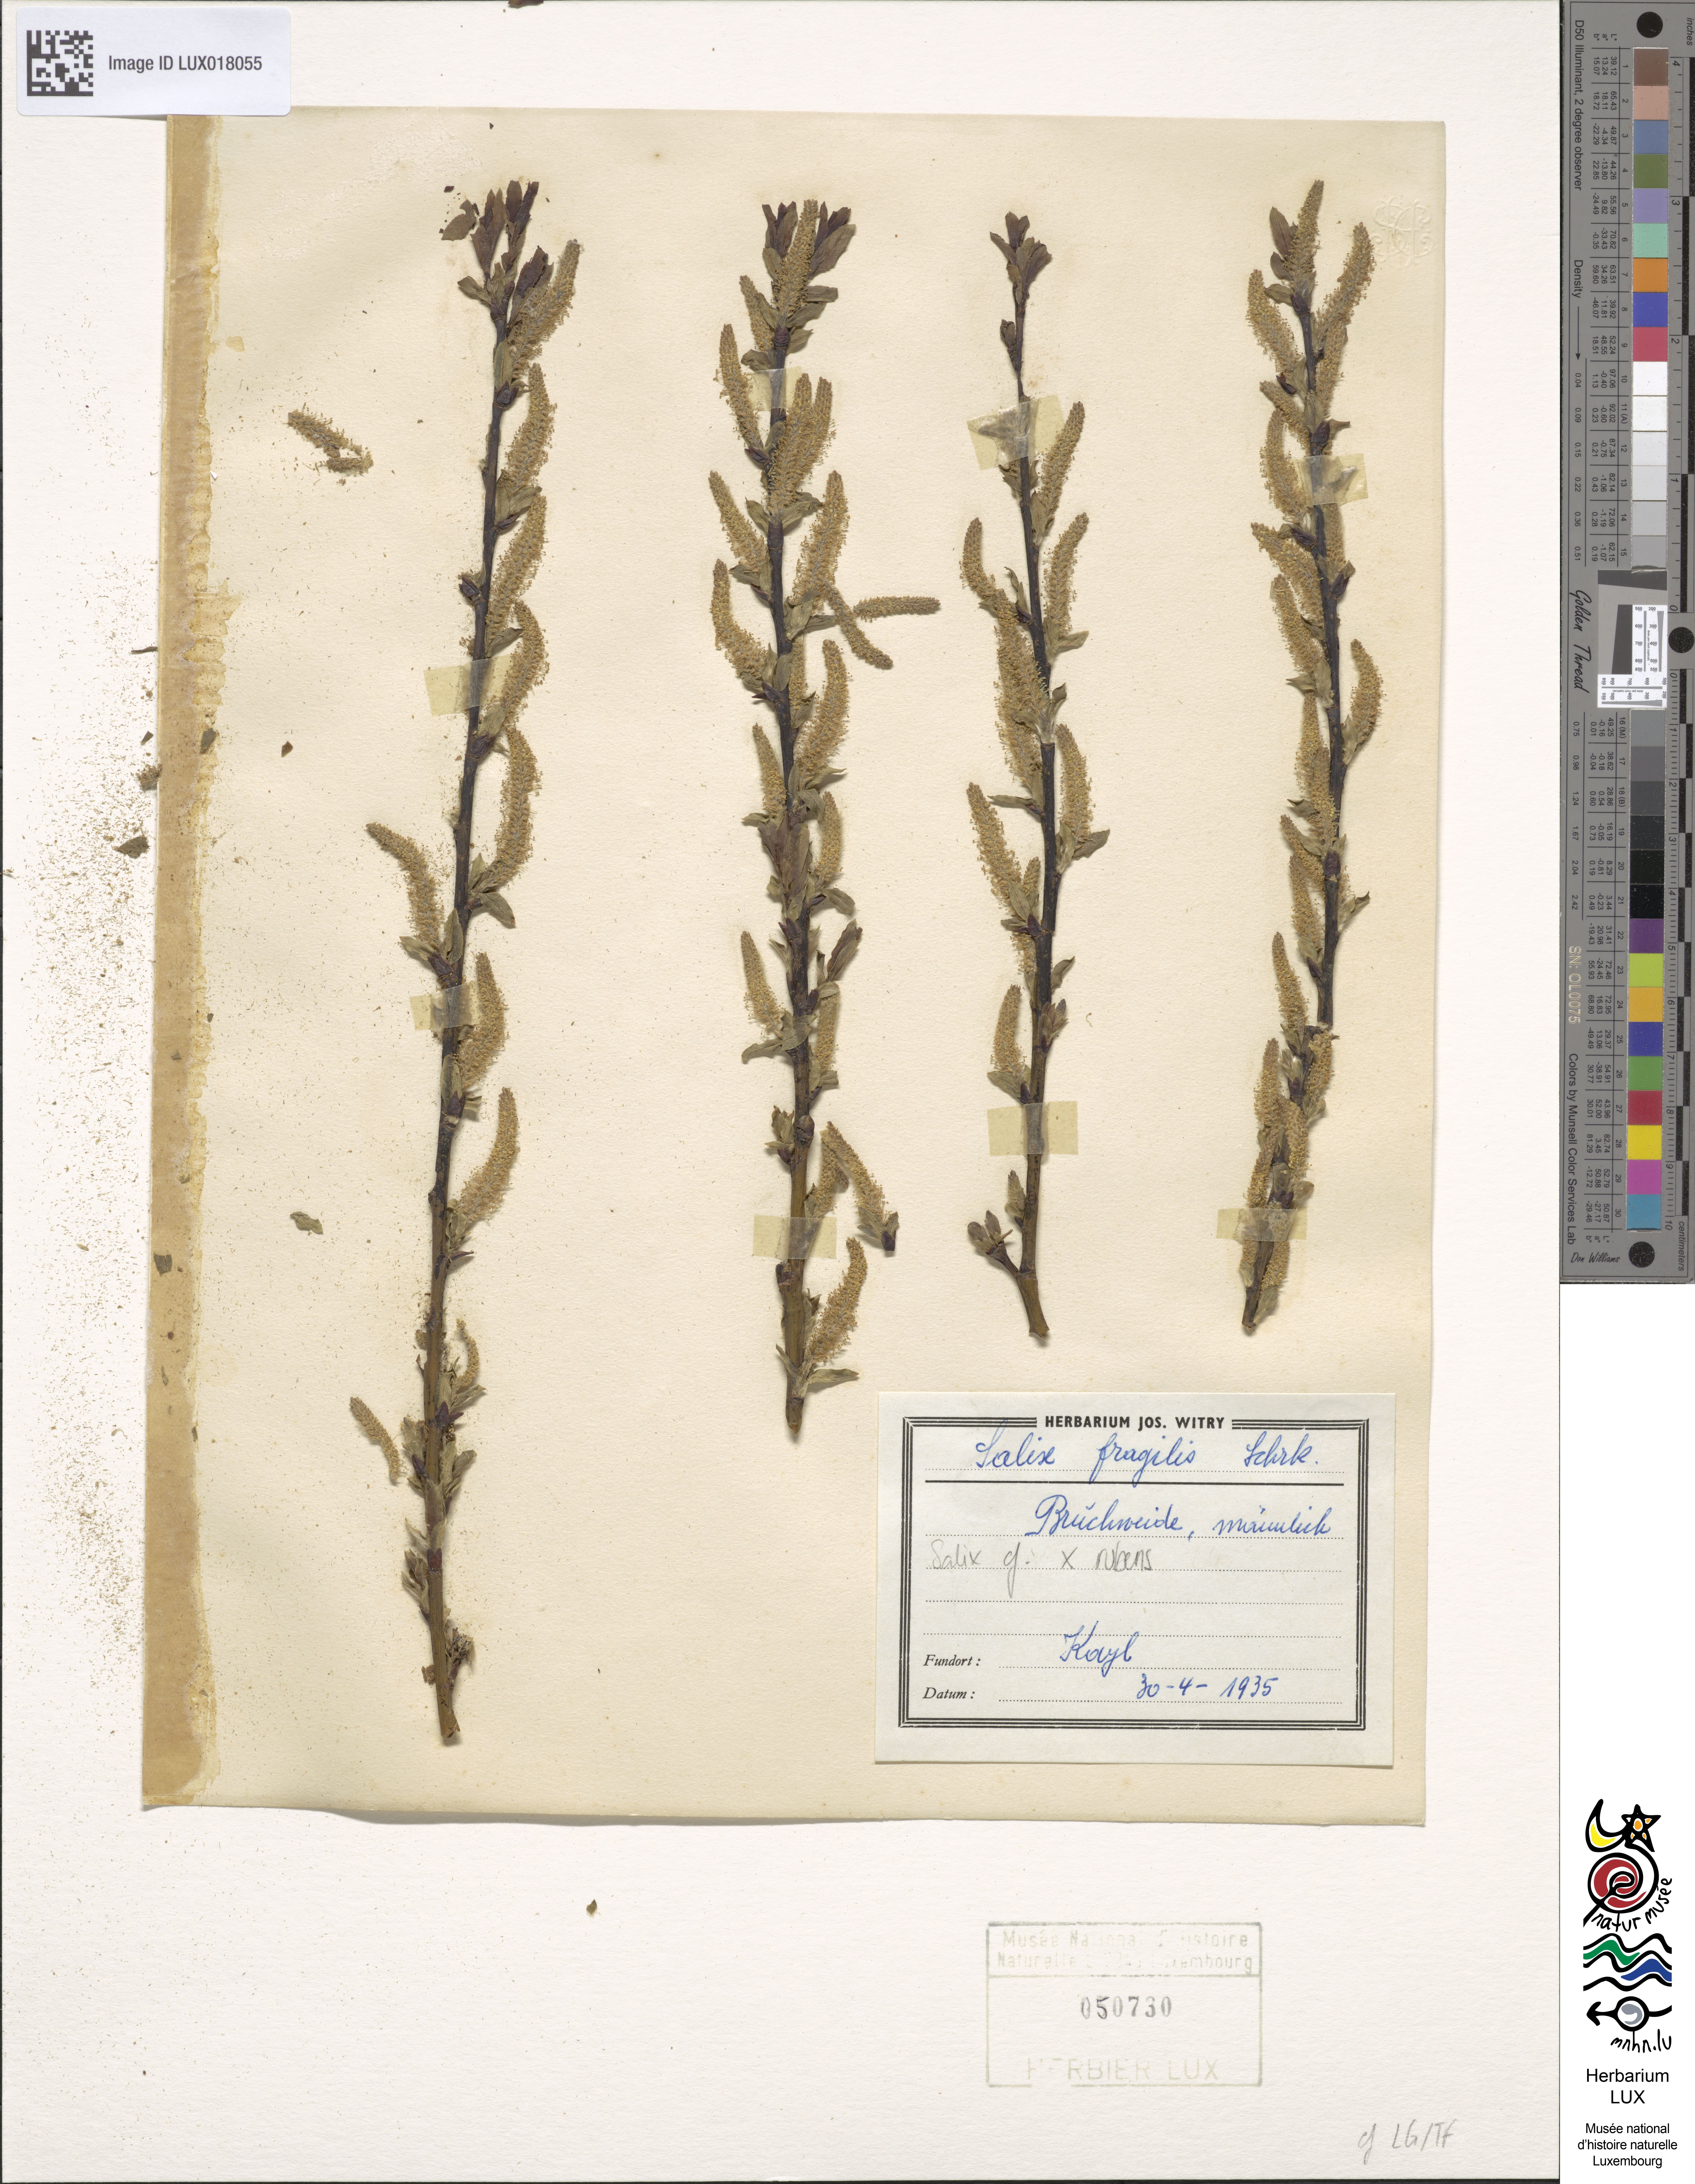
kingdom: Plantae
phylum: Tracheophyta
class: Magnoliopsida
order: Malpighiales
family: Salicaceae
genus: Salix
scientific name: Salix fragilis
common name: Crack willow
